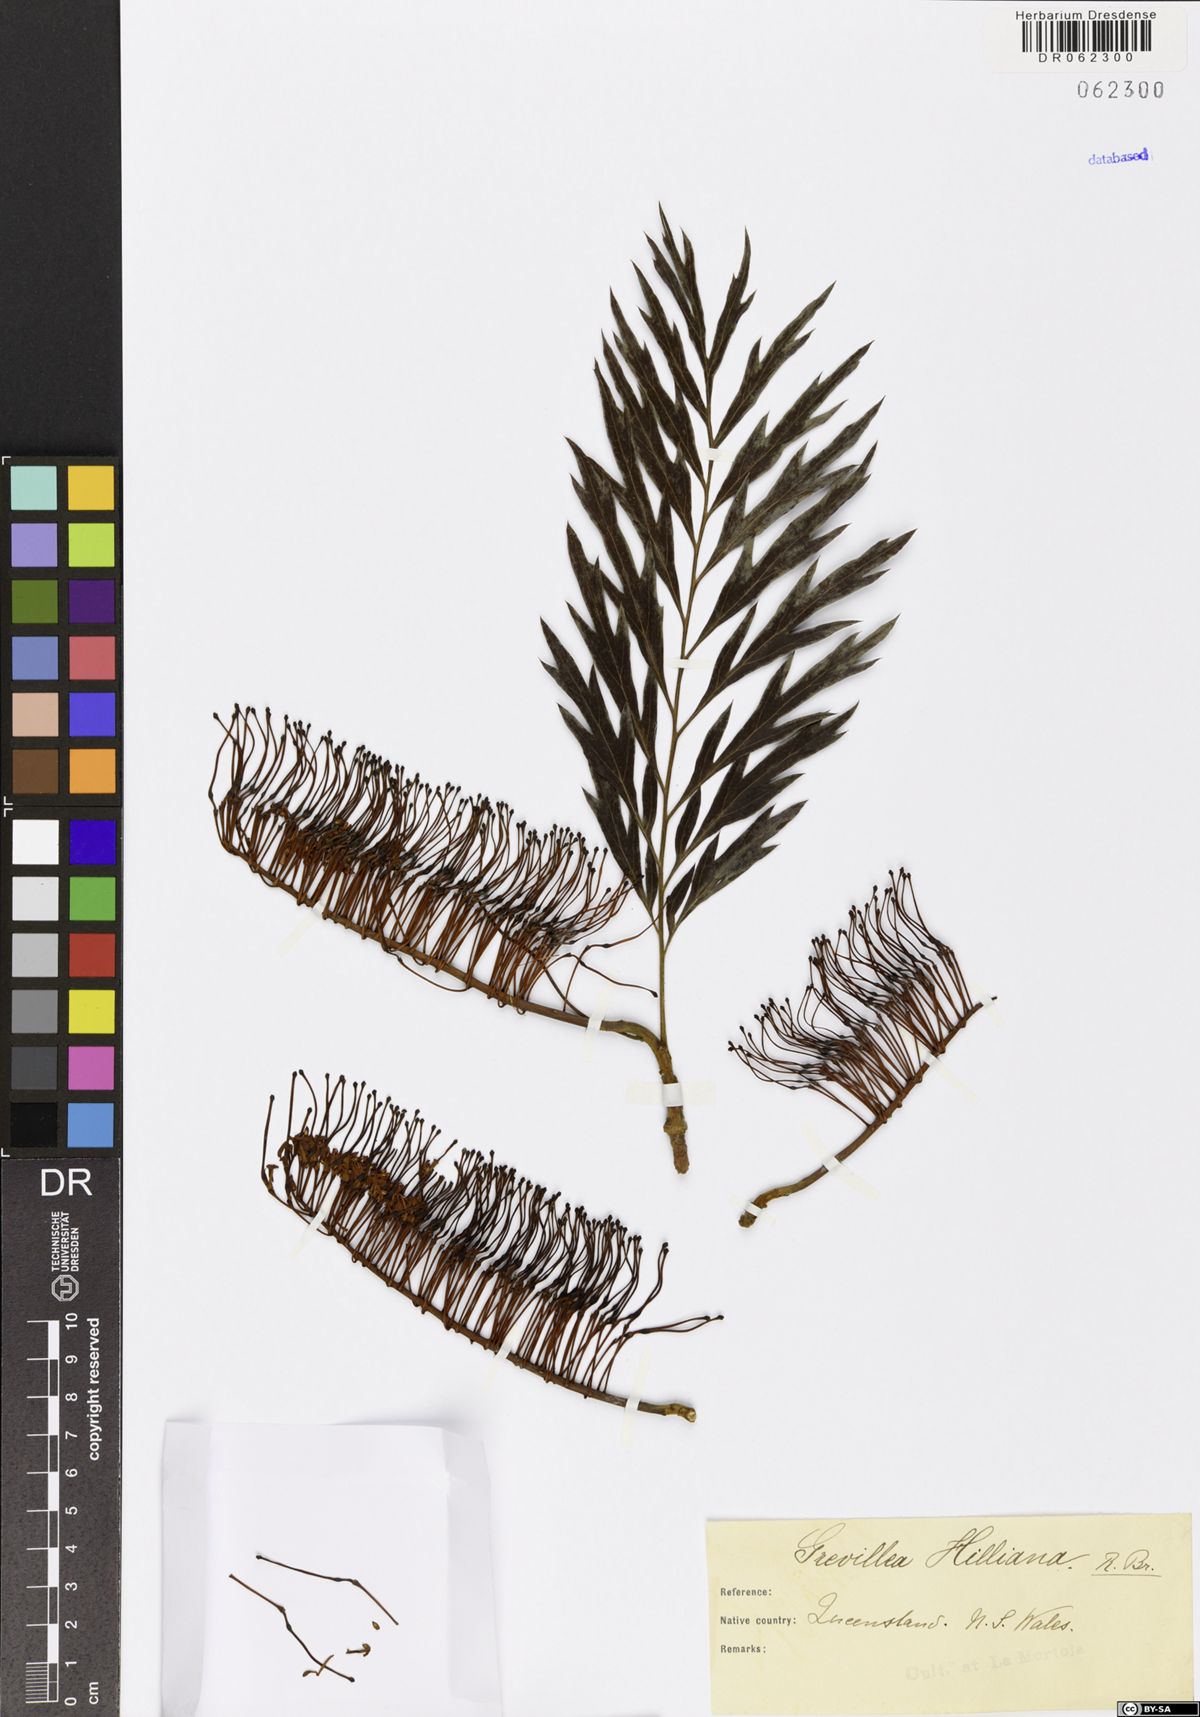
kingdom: Plantae
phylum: Tracheophyta
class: Magnoliopsida
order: Proteales
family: Proteaceae
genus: Grevillea
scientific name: Grevillea hilliana
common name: White silky-oak
